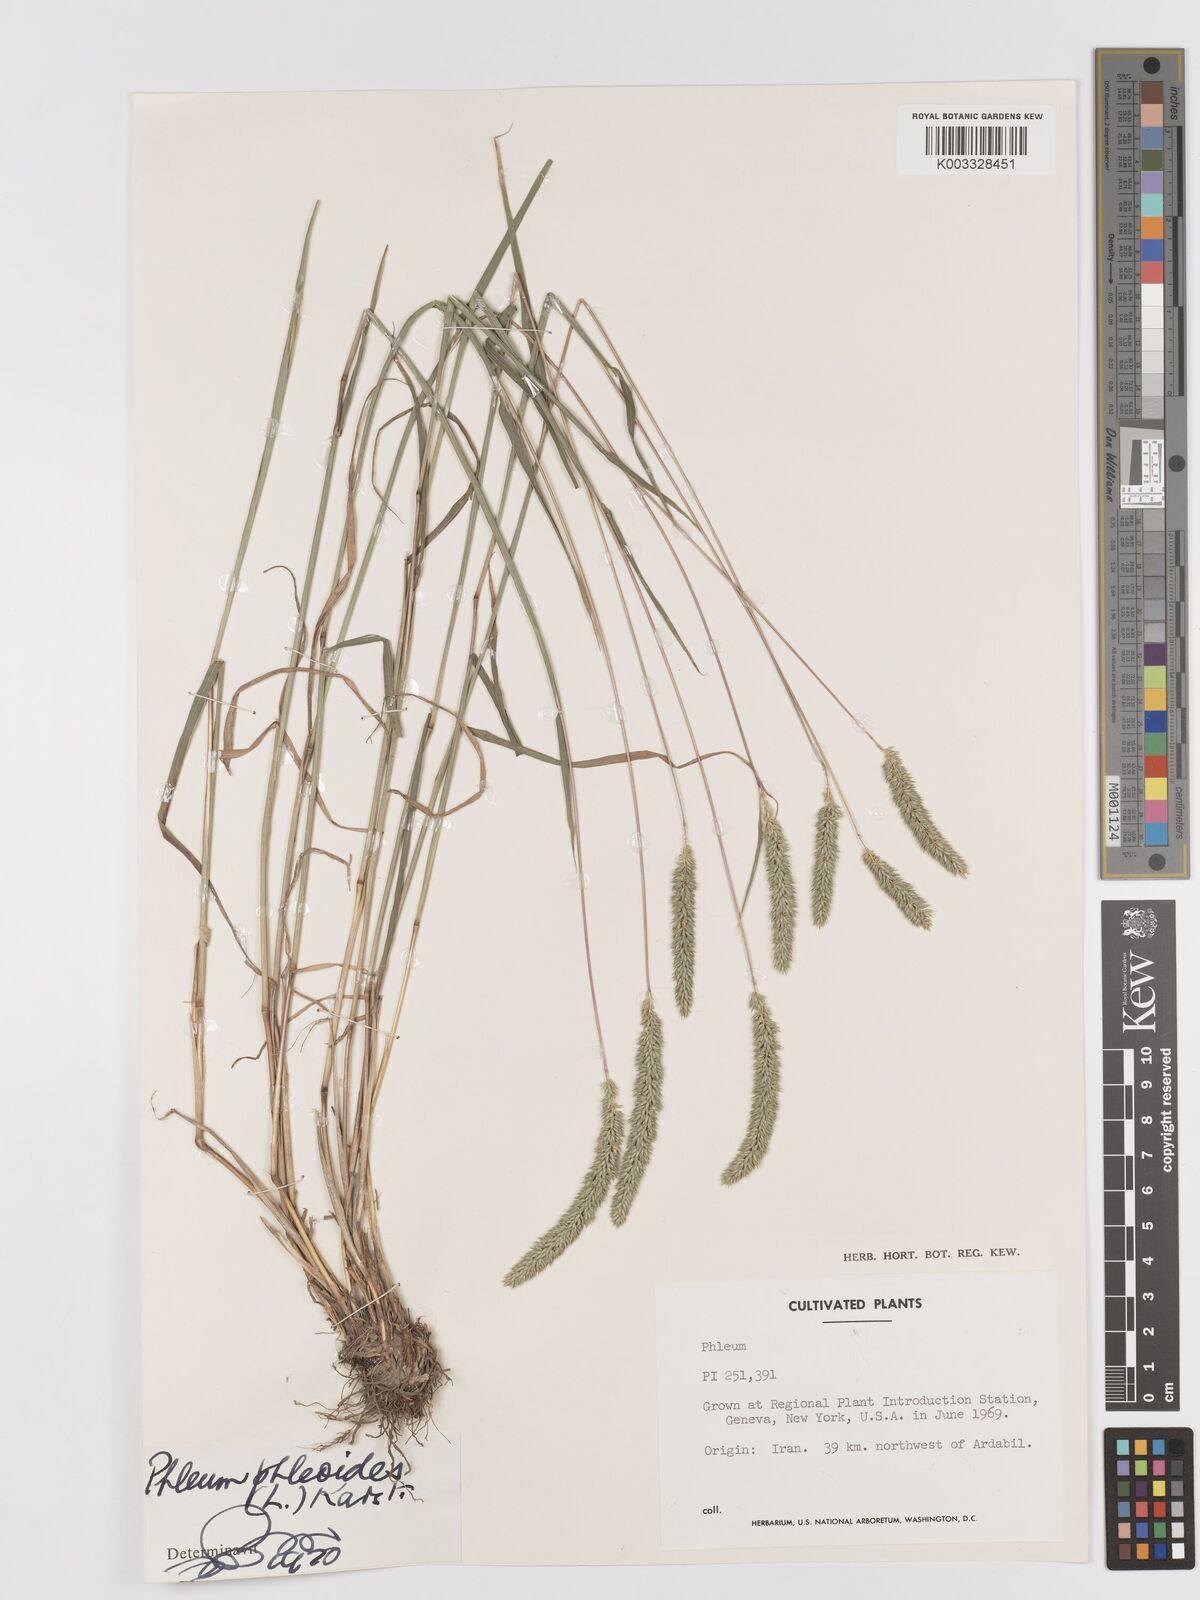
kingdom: Plantae
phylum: Tracheophyta
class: Liliopsida
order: Poales
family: Poaceae
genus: Phleum
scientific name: Phleum phleoides
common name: Purple-stem cat's-tail
